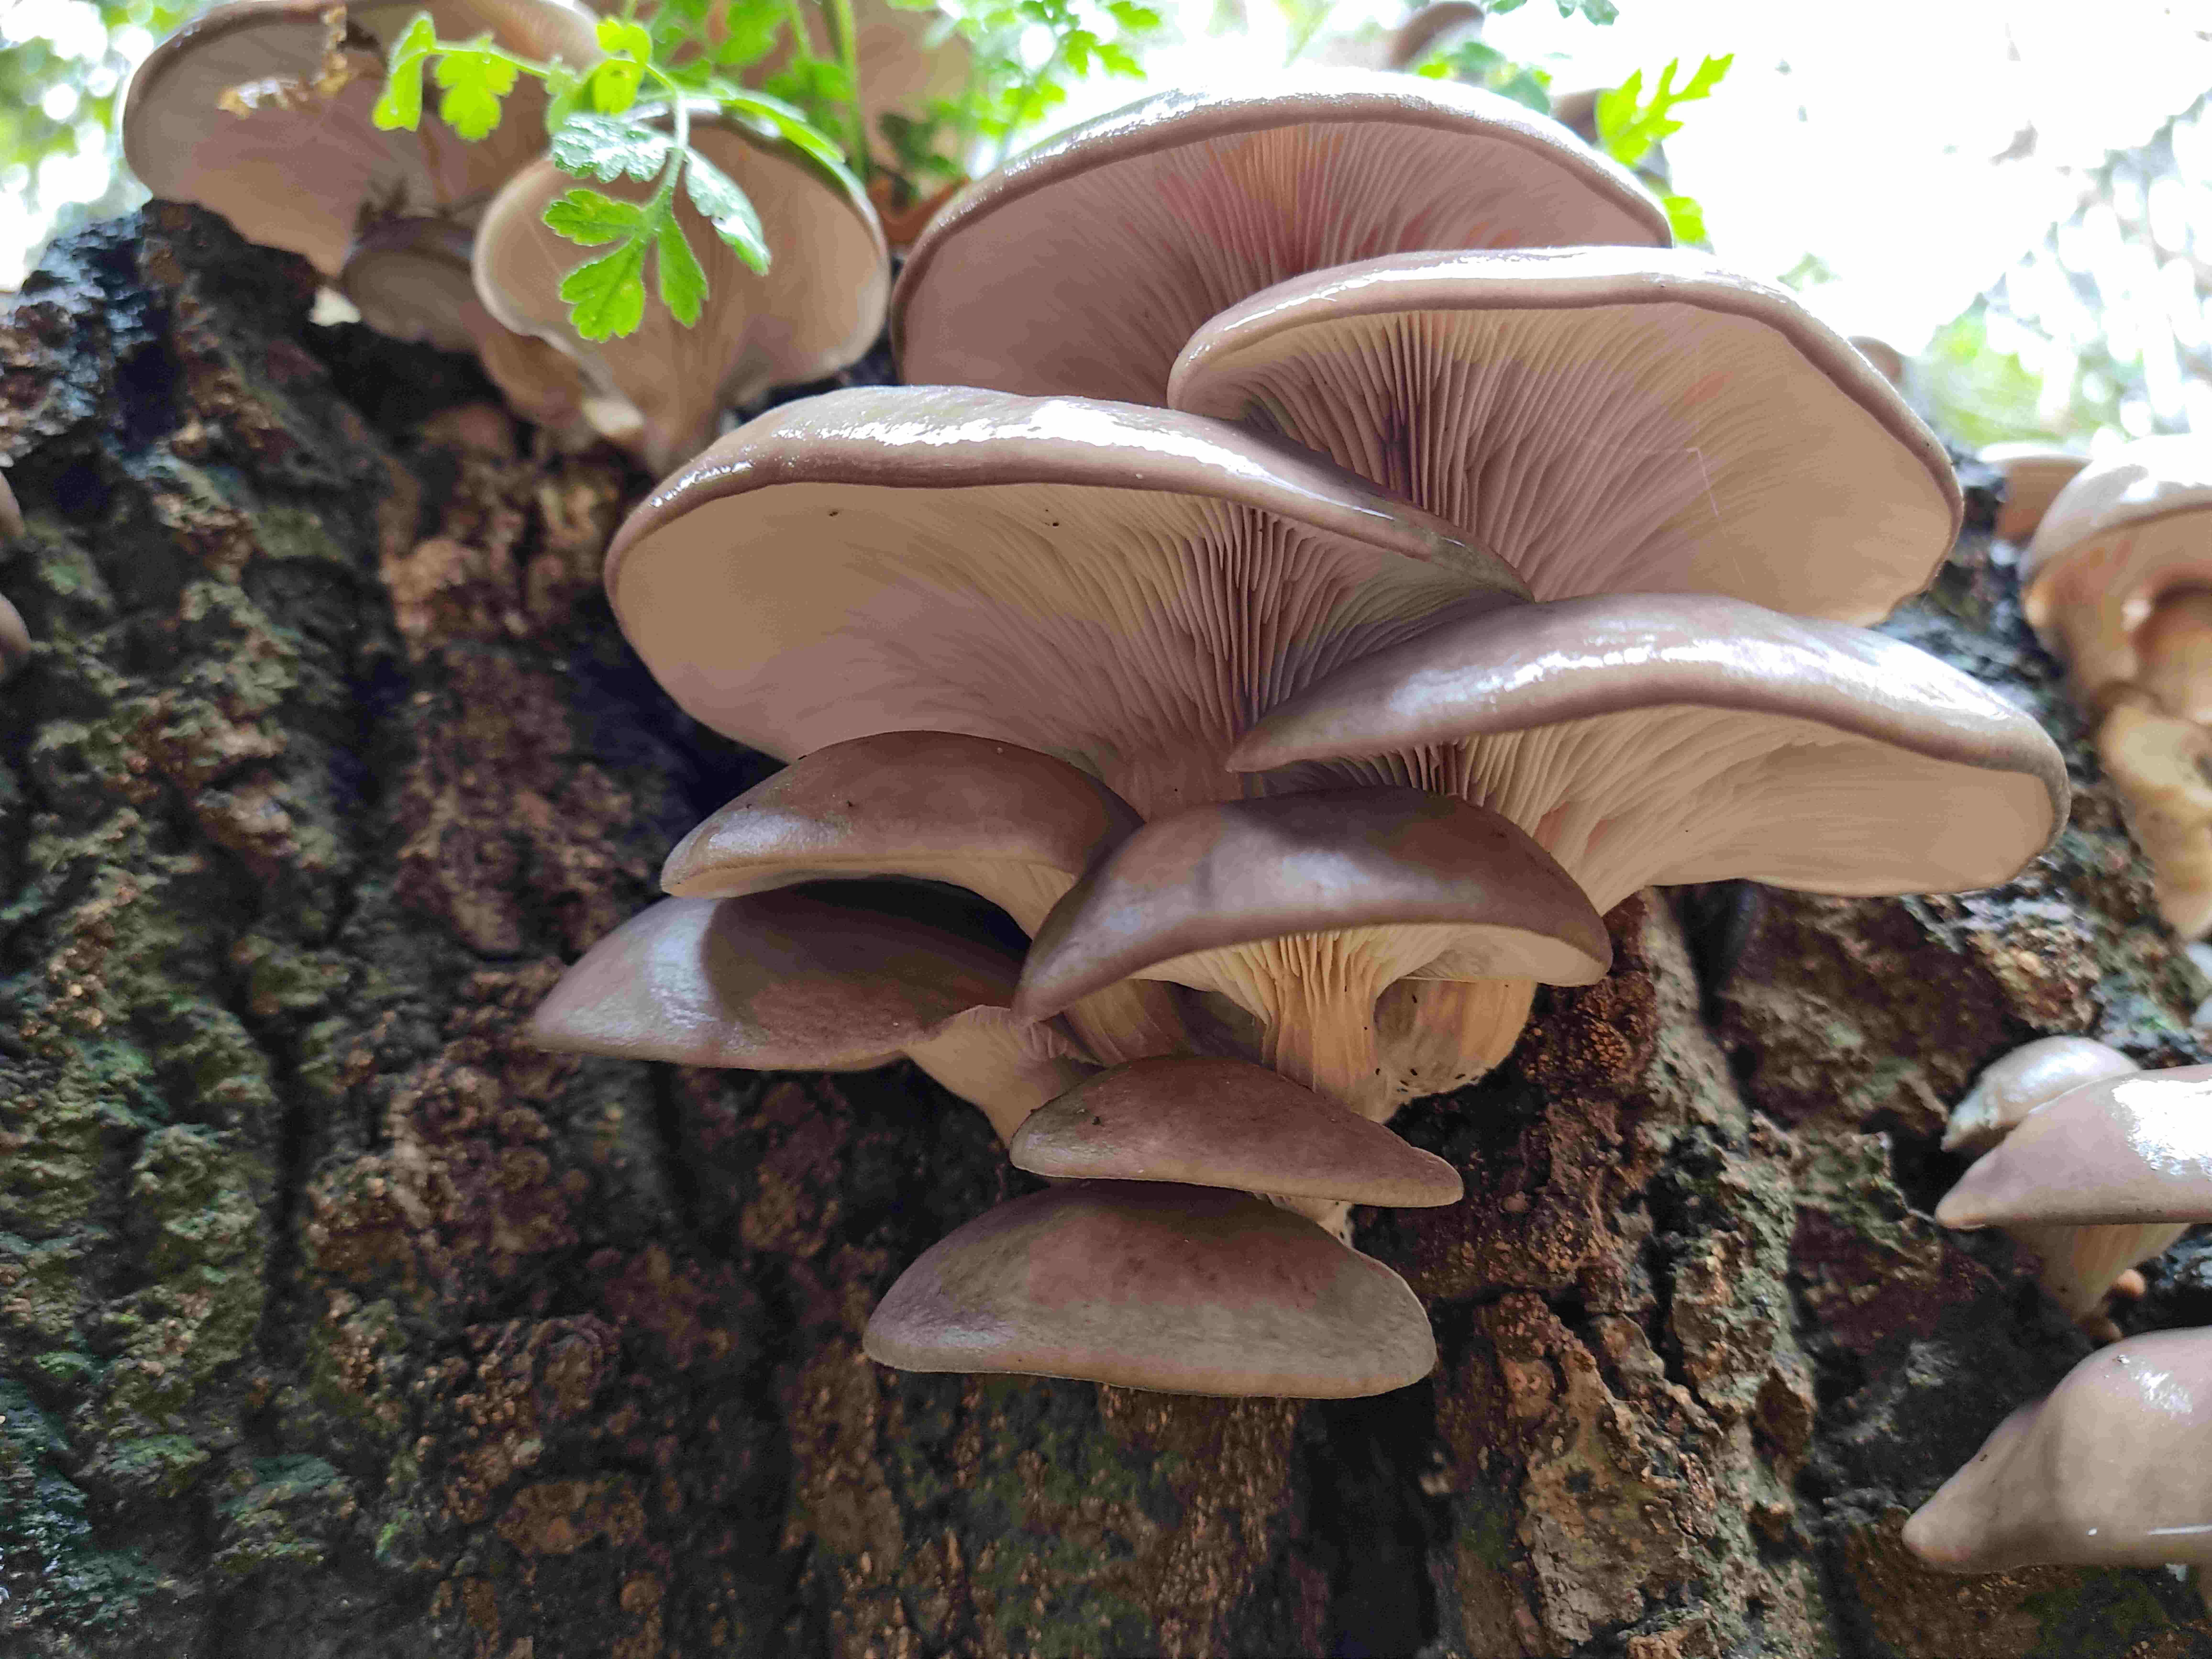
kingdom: Fungi
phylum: Basidiomycota
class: Agaricomycetes
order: Agaricales
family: Pleurotaceae
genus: Pleurotus
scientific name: Pleurotus ostreatus
